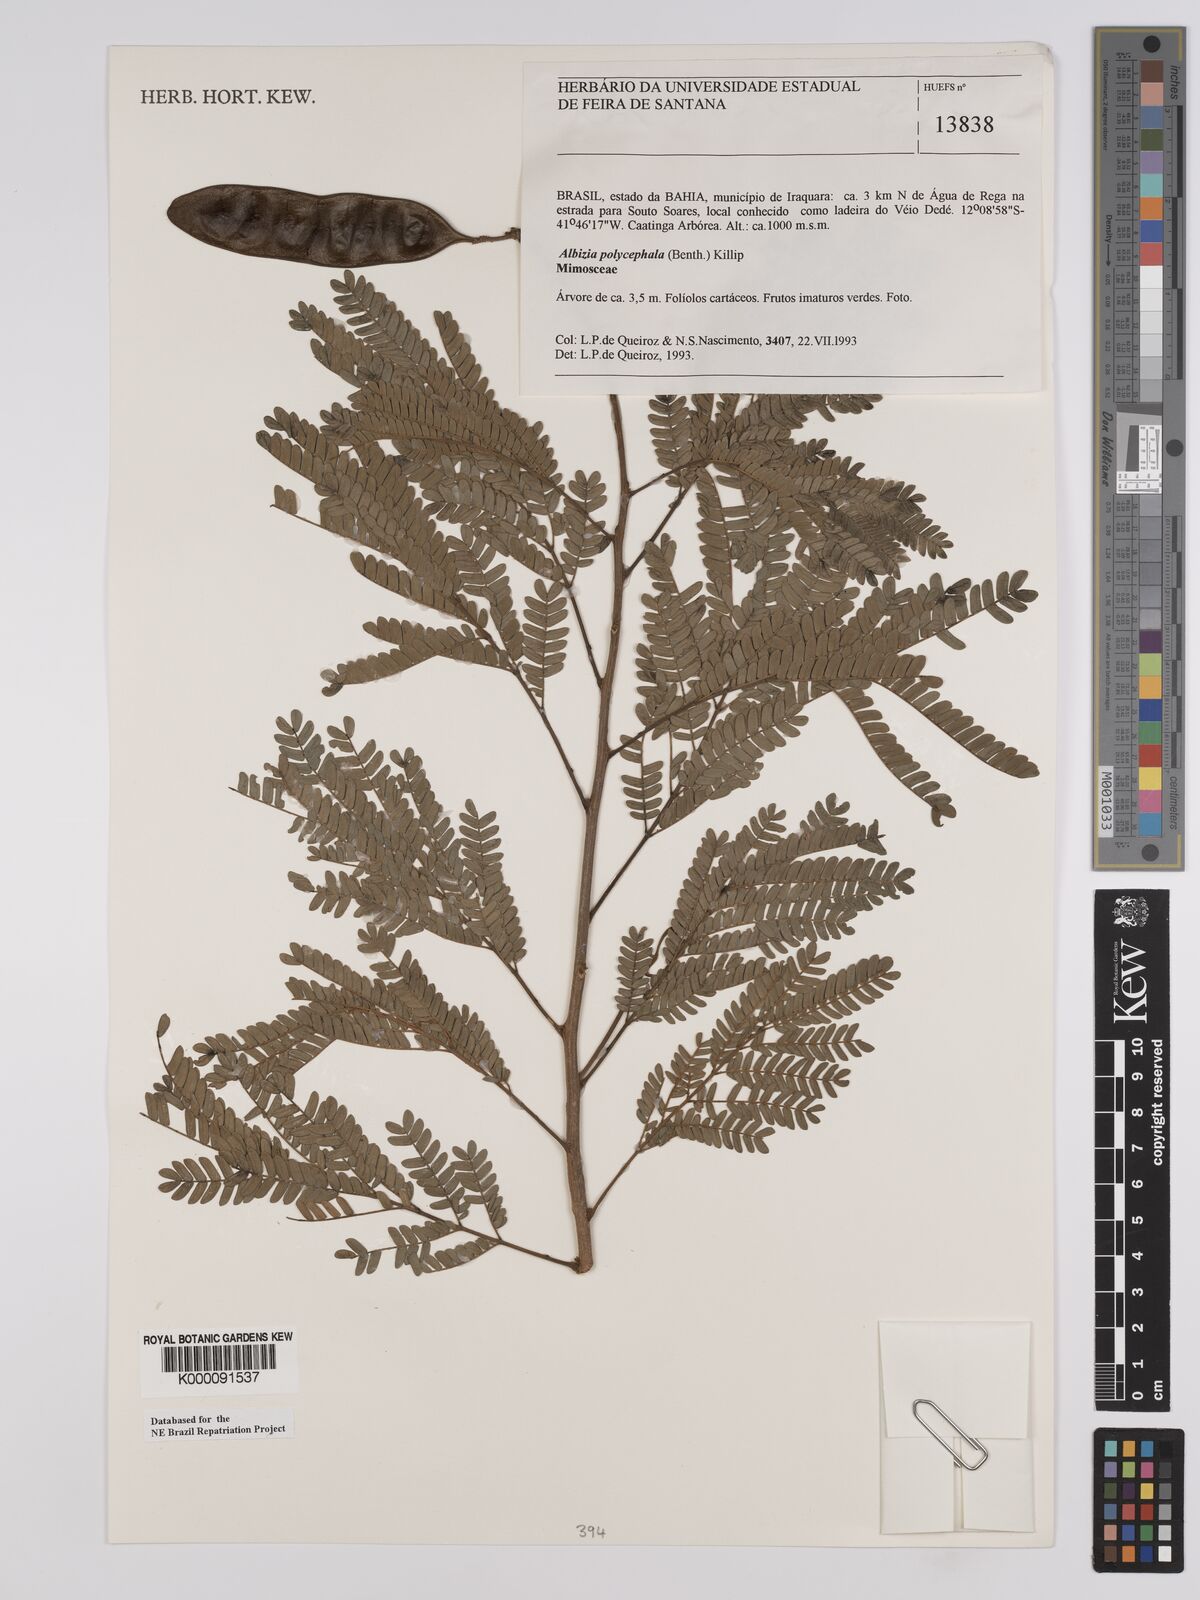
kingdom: Plantae
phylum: Tracheophyta
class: Magnoliopsida
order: Fabales
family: Fabaceae
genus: Albizia
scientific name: Albizia polycephala
